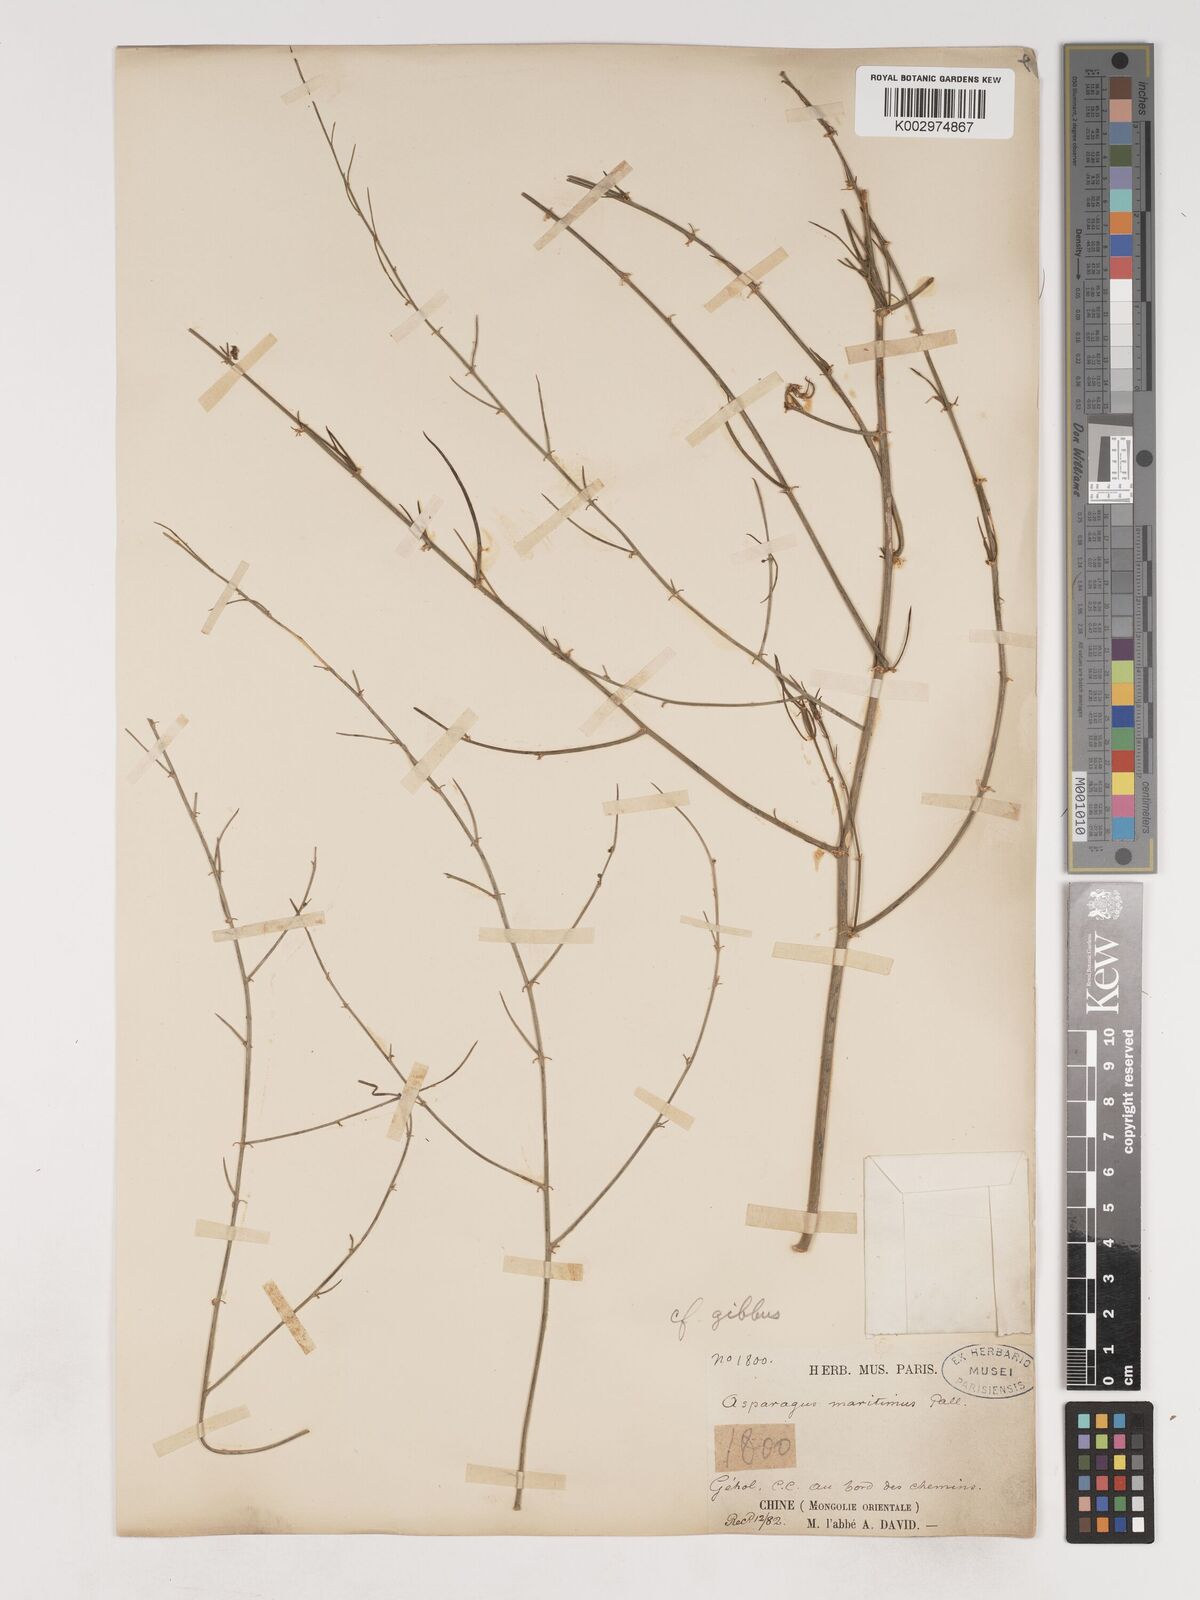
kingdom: Plantae
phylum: Tracheophyta
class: Liliopsida
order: Asparagales
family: Asparagaceae
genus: Asparagus
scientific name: Asparagus dauricus
